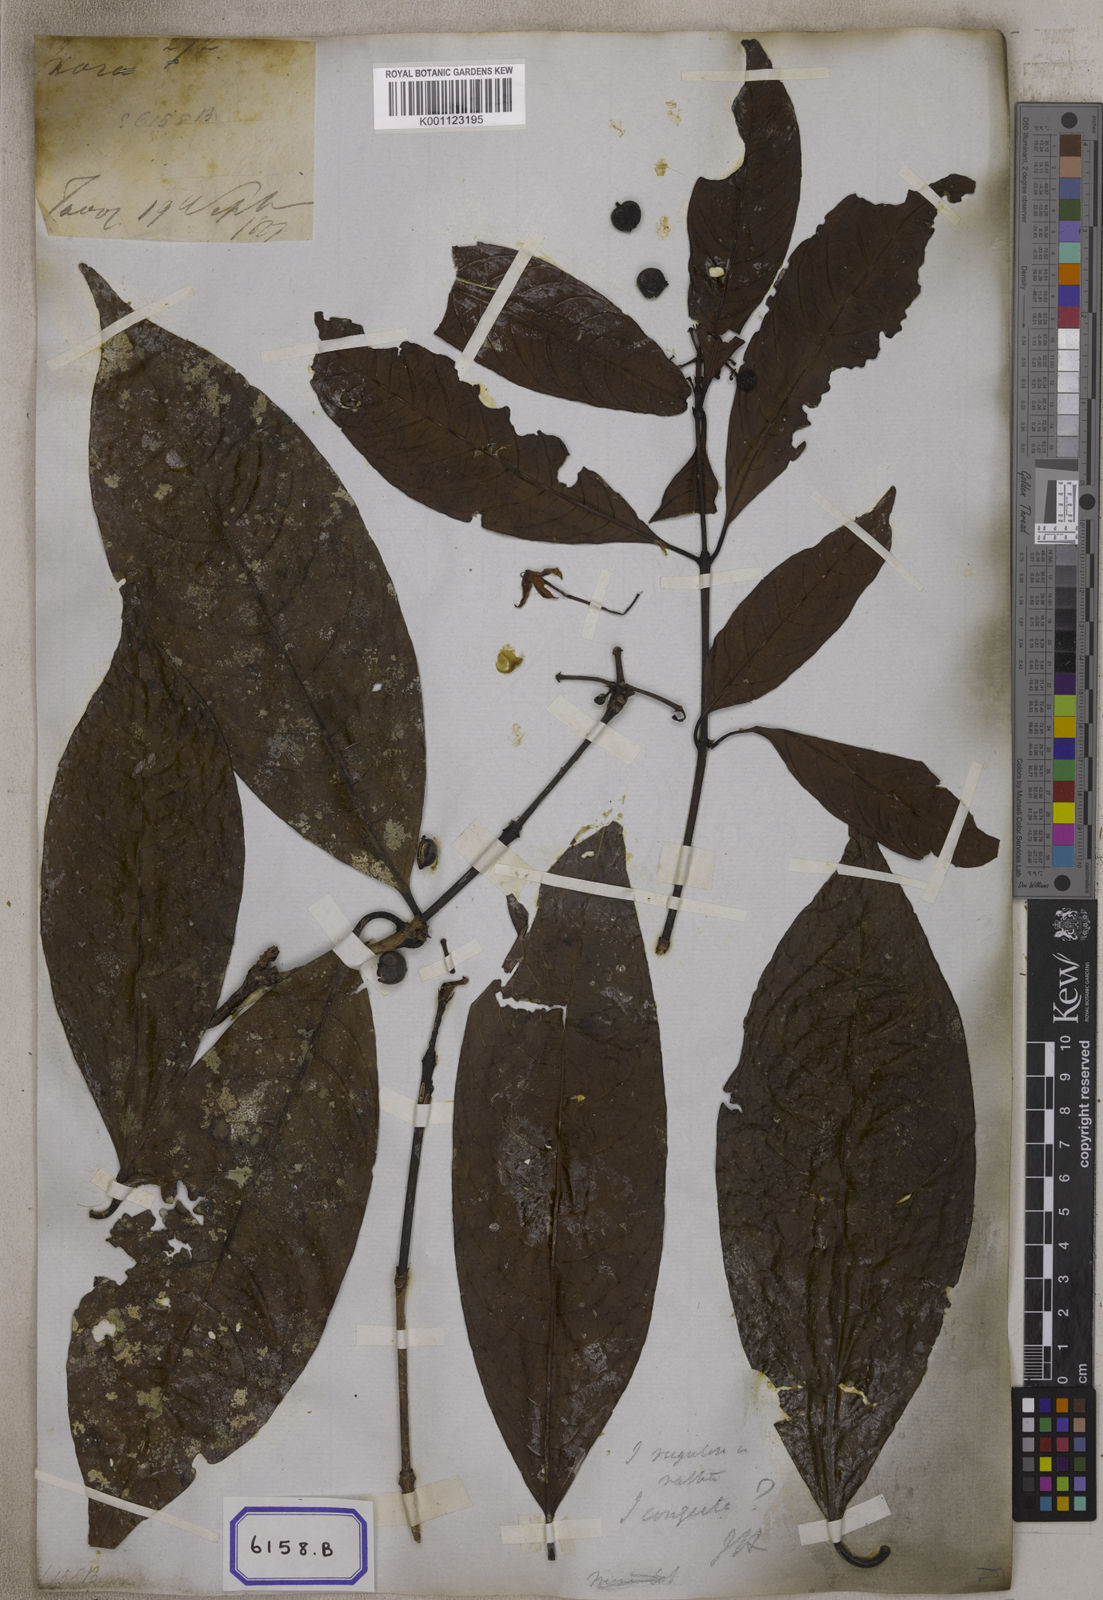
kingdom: Plantae
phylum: Tracheophyta
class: Magnoliopsida
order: Gentianales
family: Rubiaceae
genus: Ixora
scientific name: Ixora
